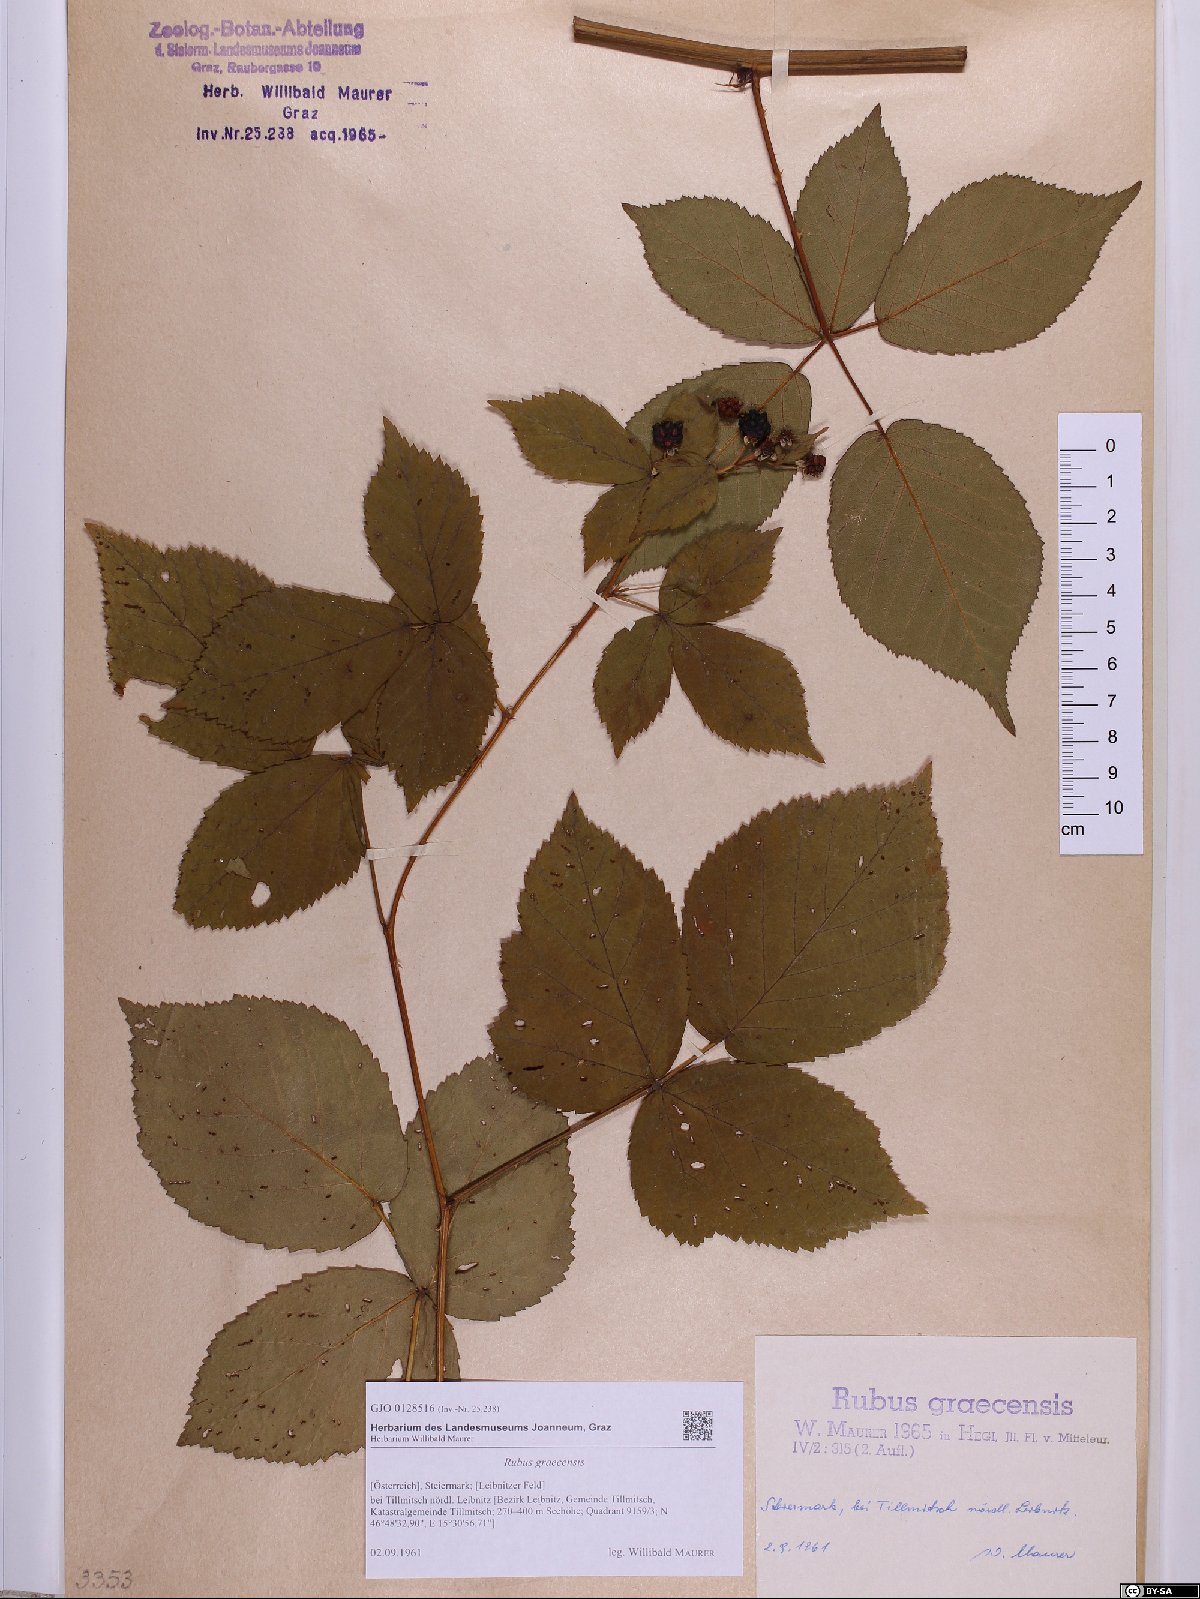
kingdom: Plantae
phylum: Tracheophyta
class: Magnoliopsida
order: Rosales
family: Rosaceae
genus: Rubus
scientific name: Rubus graecensis
